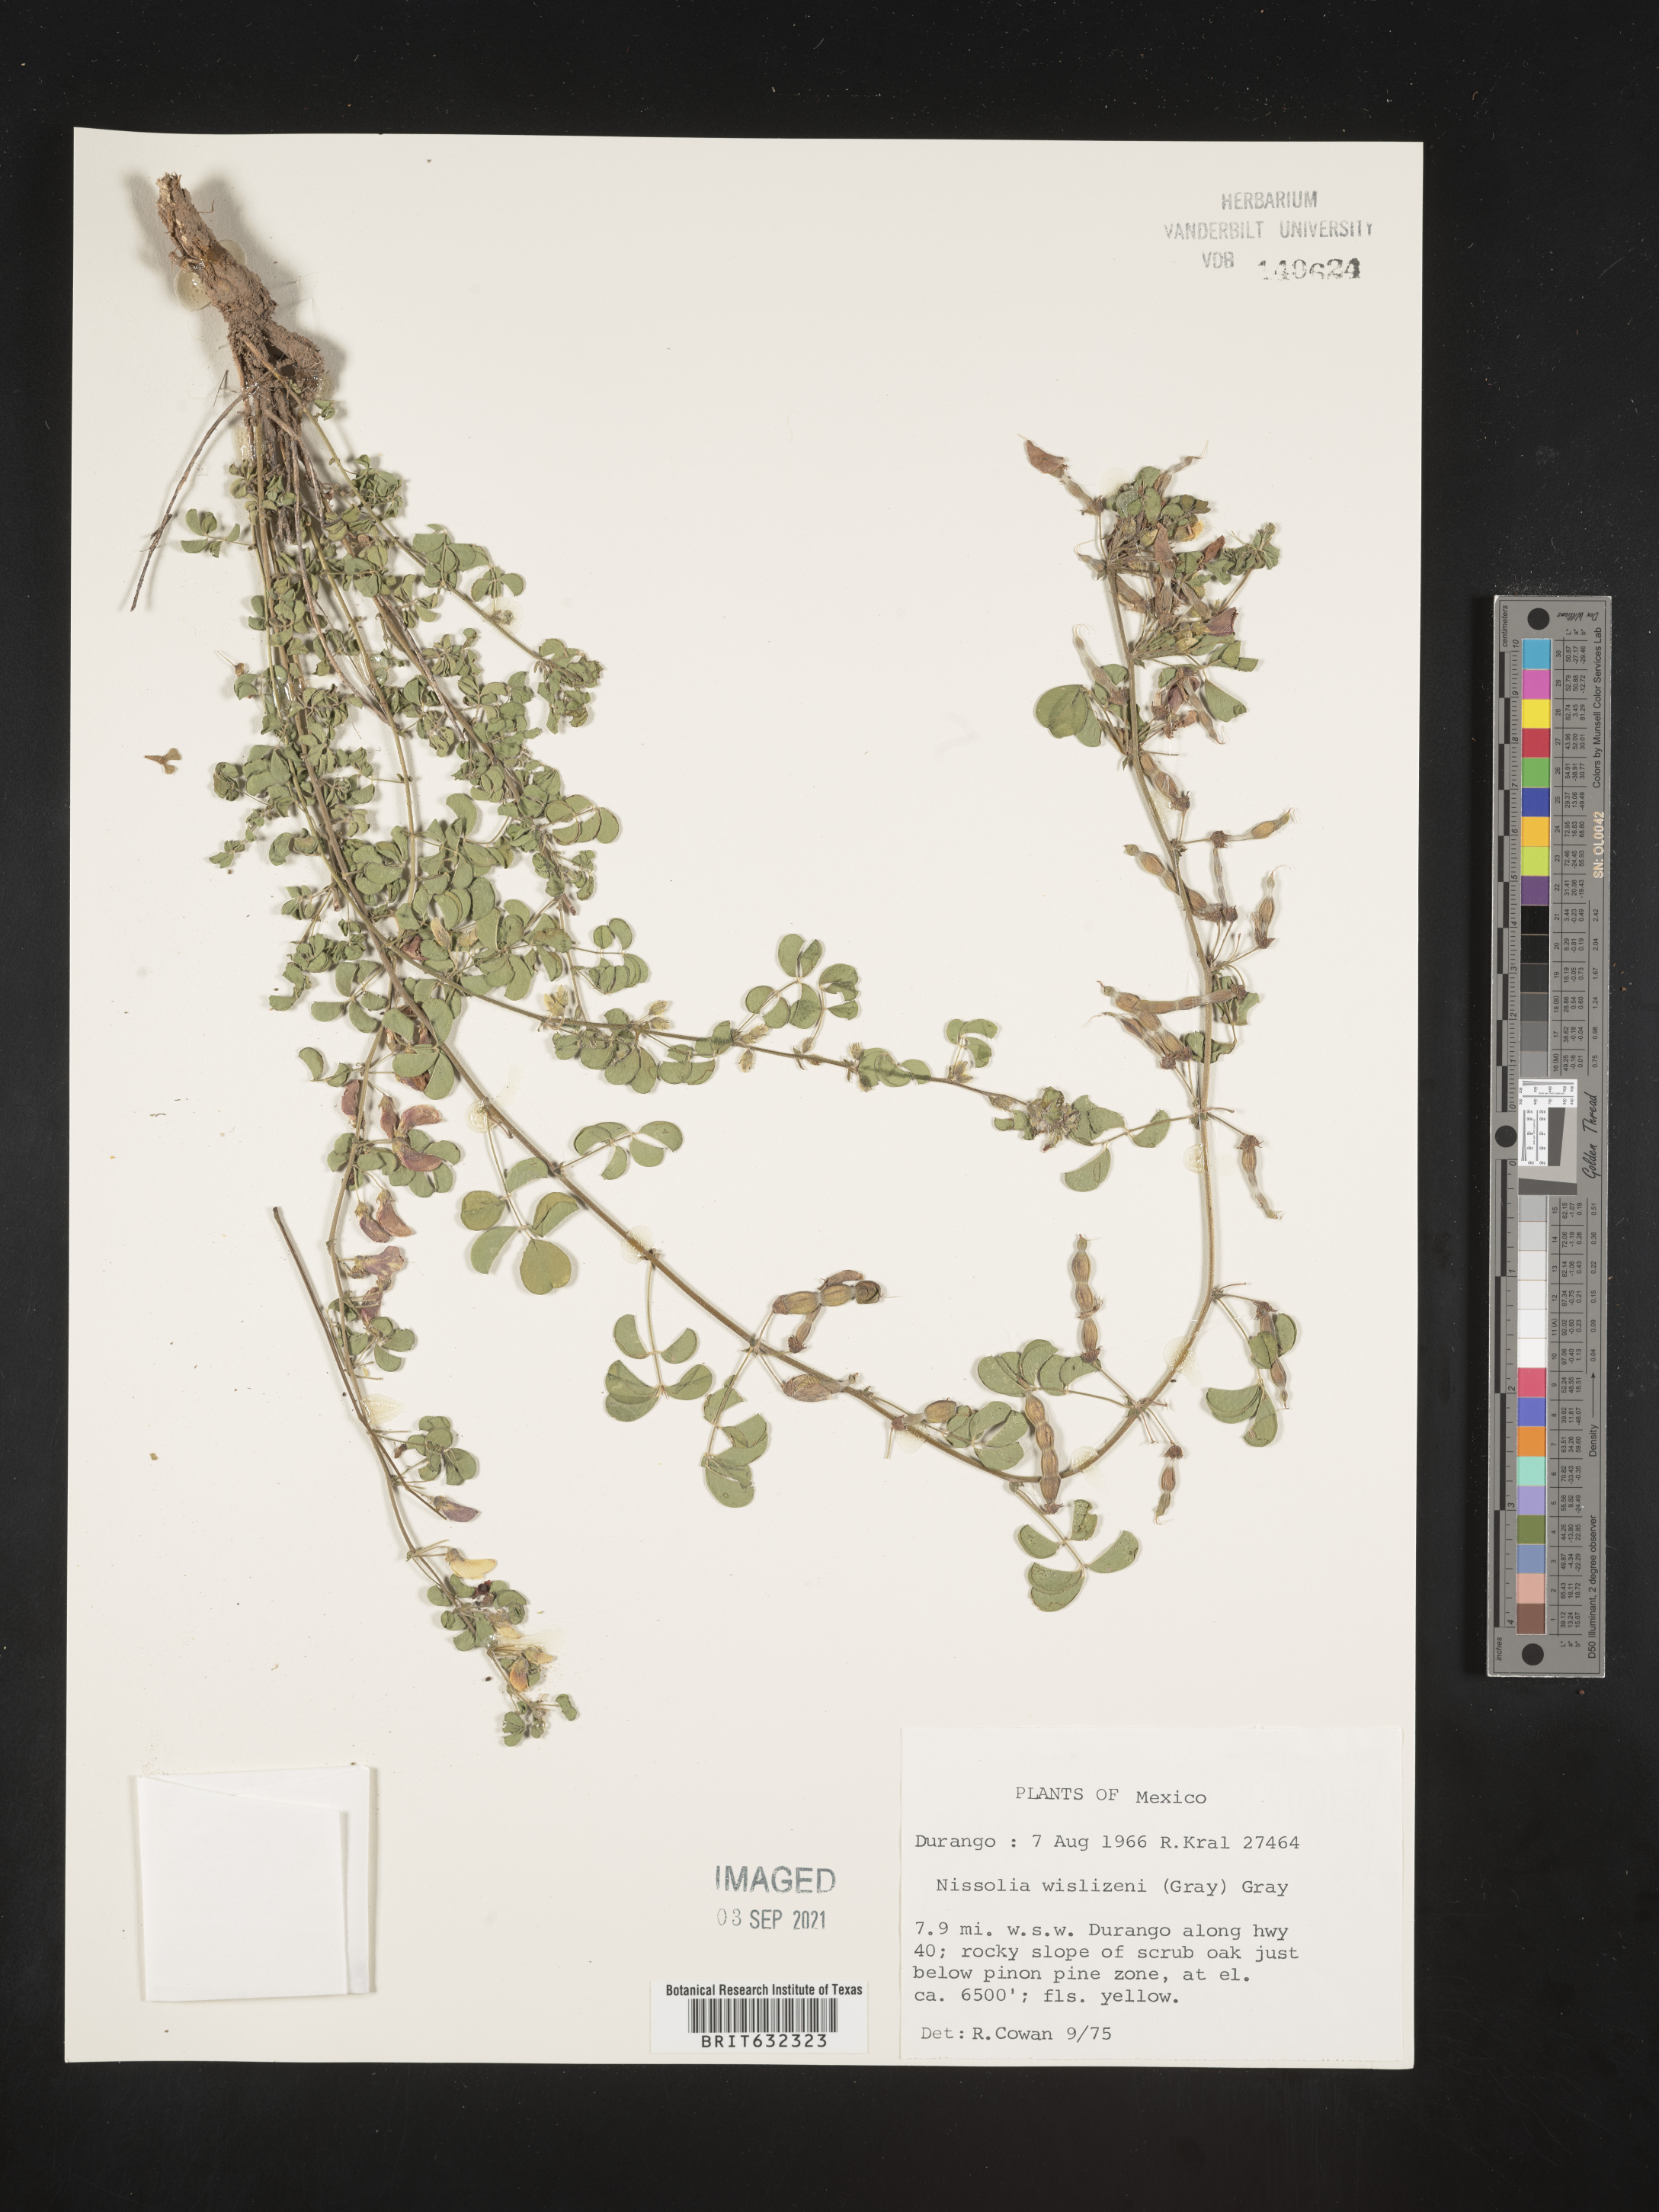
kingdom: Plantae
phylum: Tracheophyta
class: Magnoliopsida
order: Fabales
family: Fabaceae
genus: Nissolia
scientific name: Nissolia
